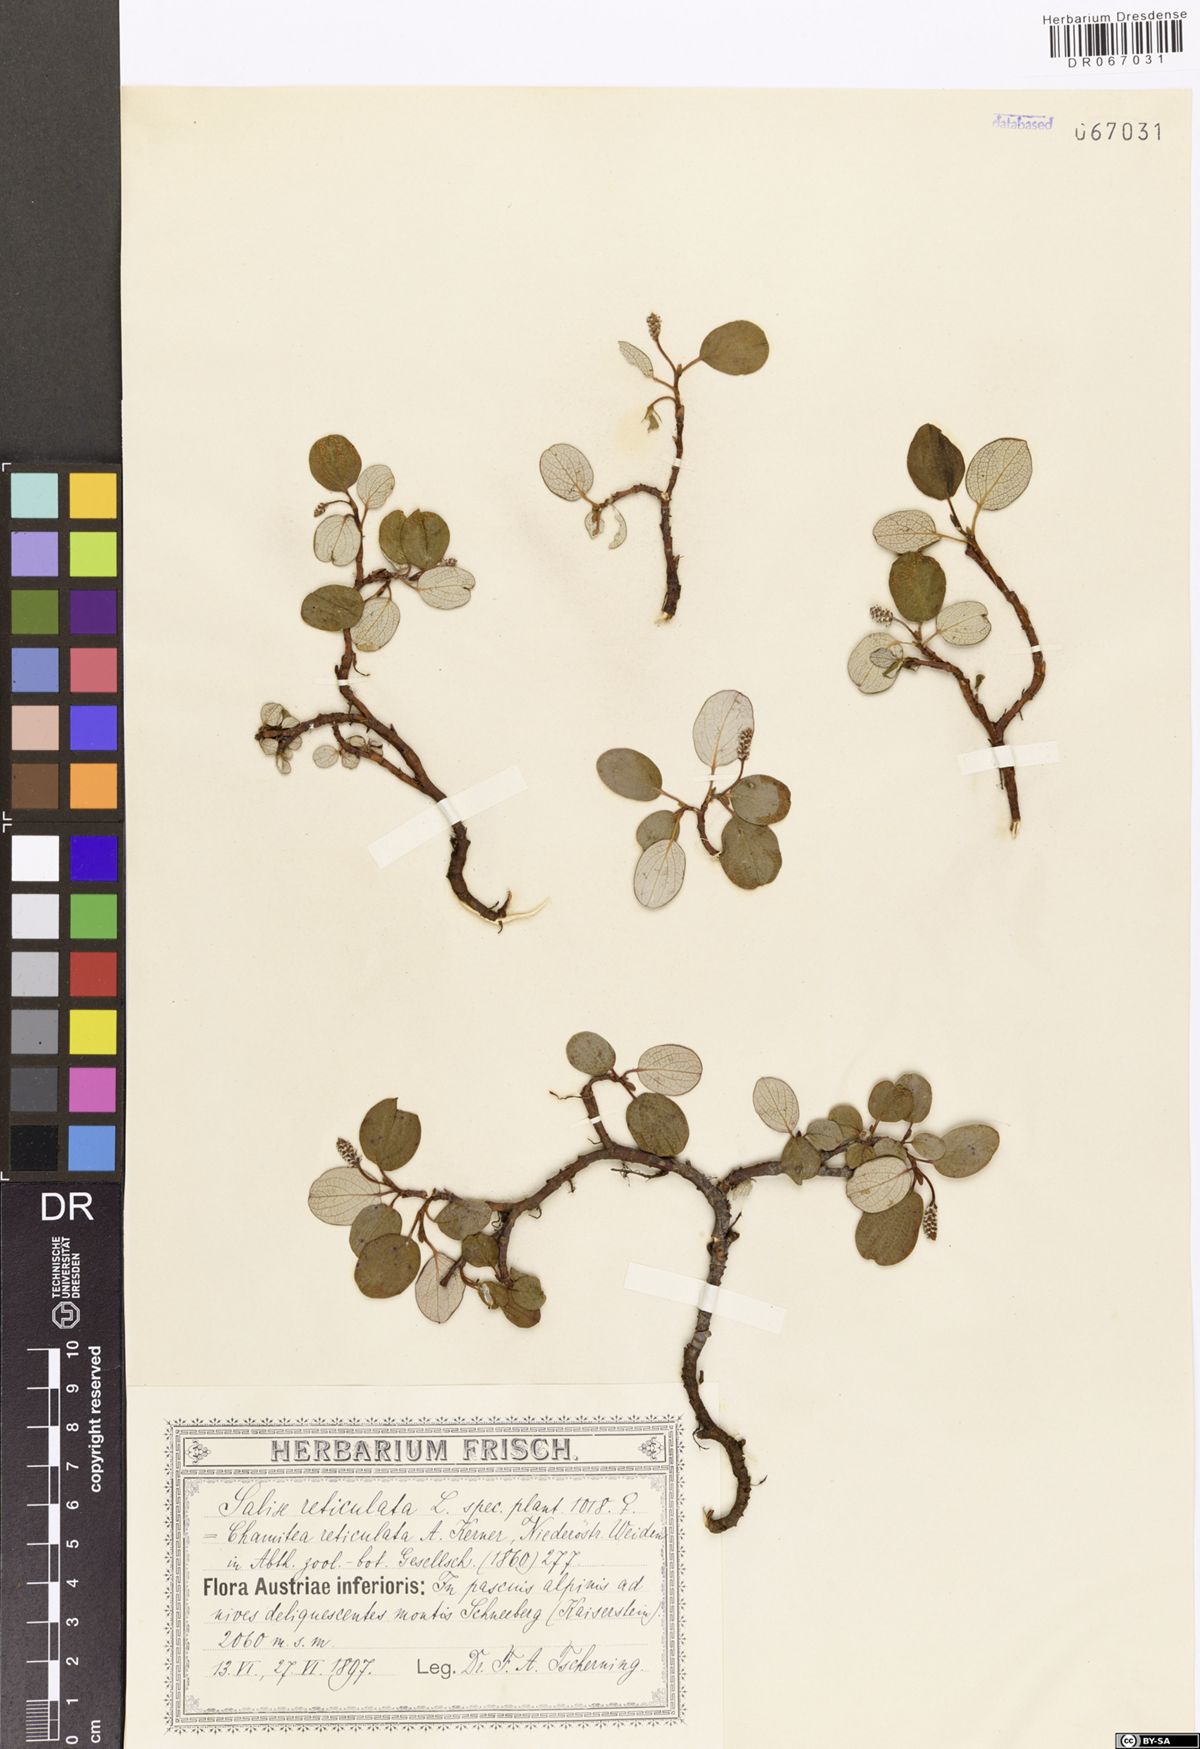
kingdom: Plantae
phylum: Tracheophyta
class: Magnoliopsida
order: Malpighiales
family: Salicaceae
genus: Salix
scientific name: Salix reticulata
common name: Net-leaved willow
